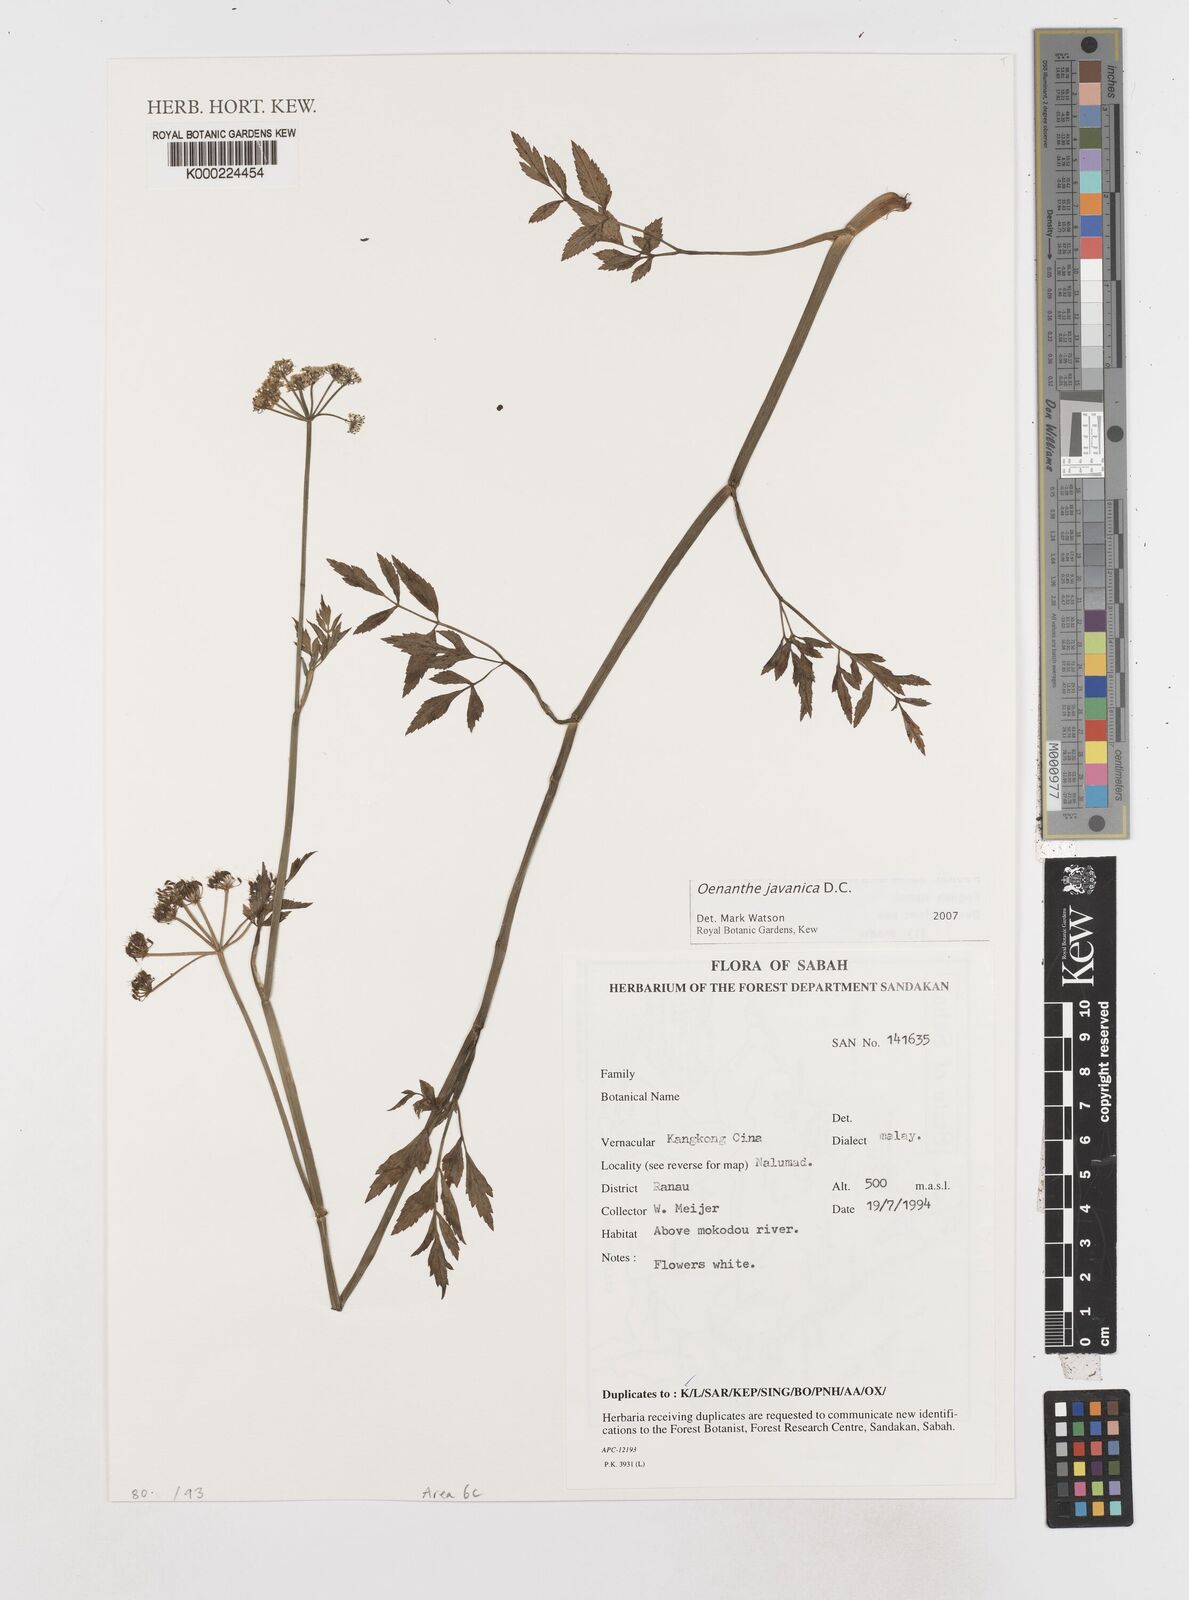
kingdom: Plantae
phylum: Tracheophyta
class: Magnoliopsida
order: Apiales
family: Apiaceae
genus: Oenanthe
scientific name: Oenanthe javanica
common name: Java water-dropwort
